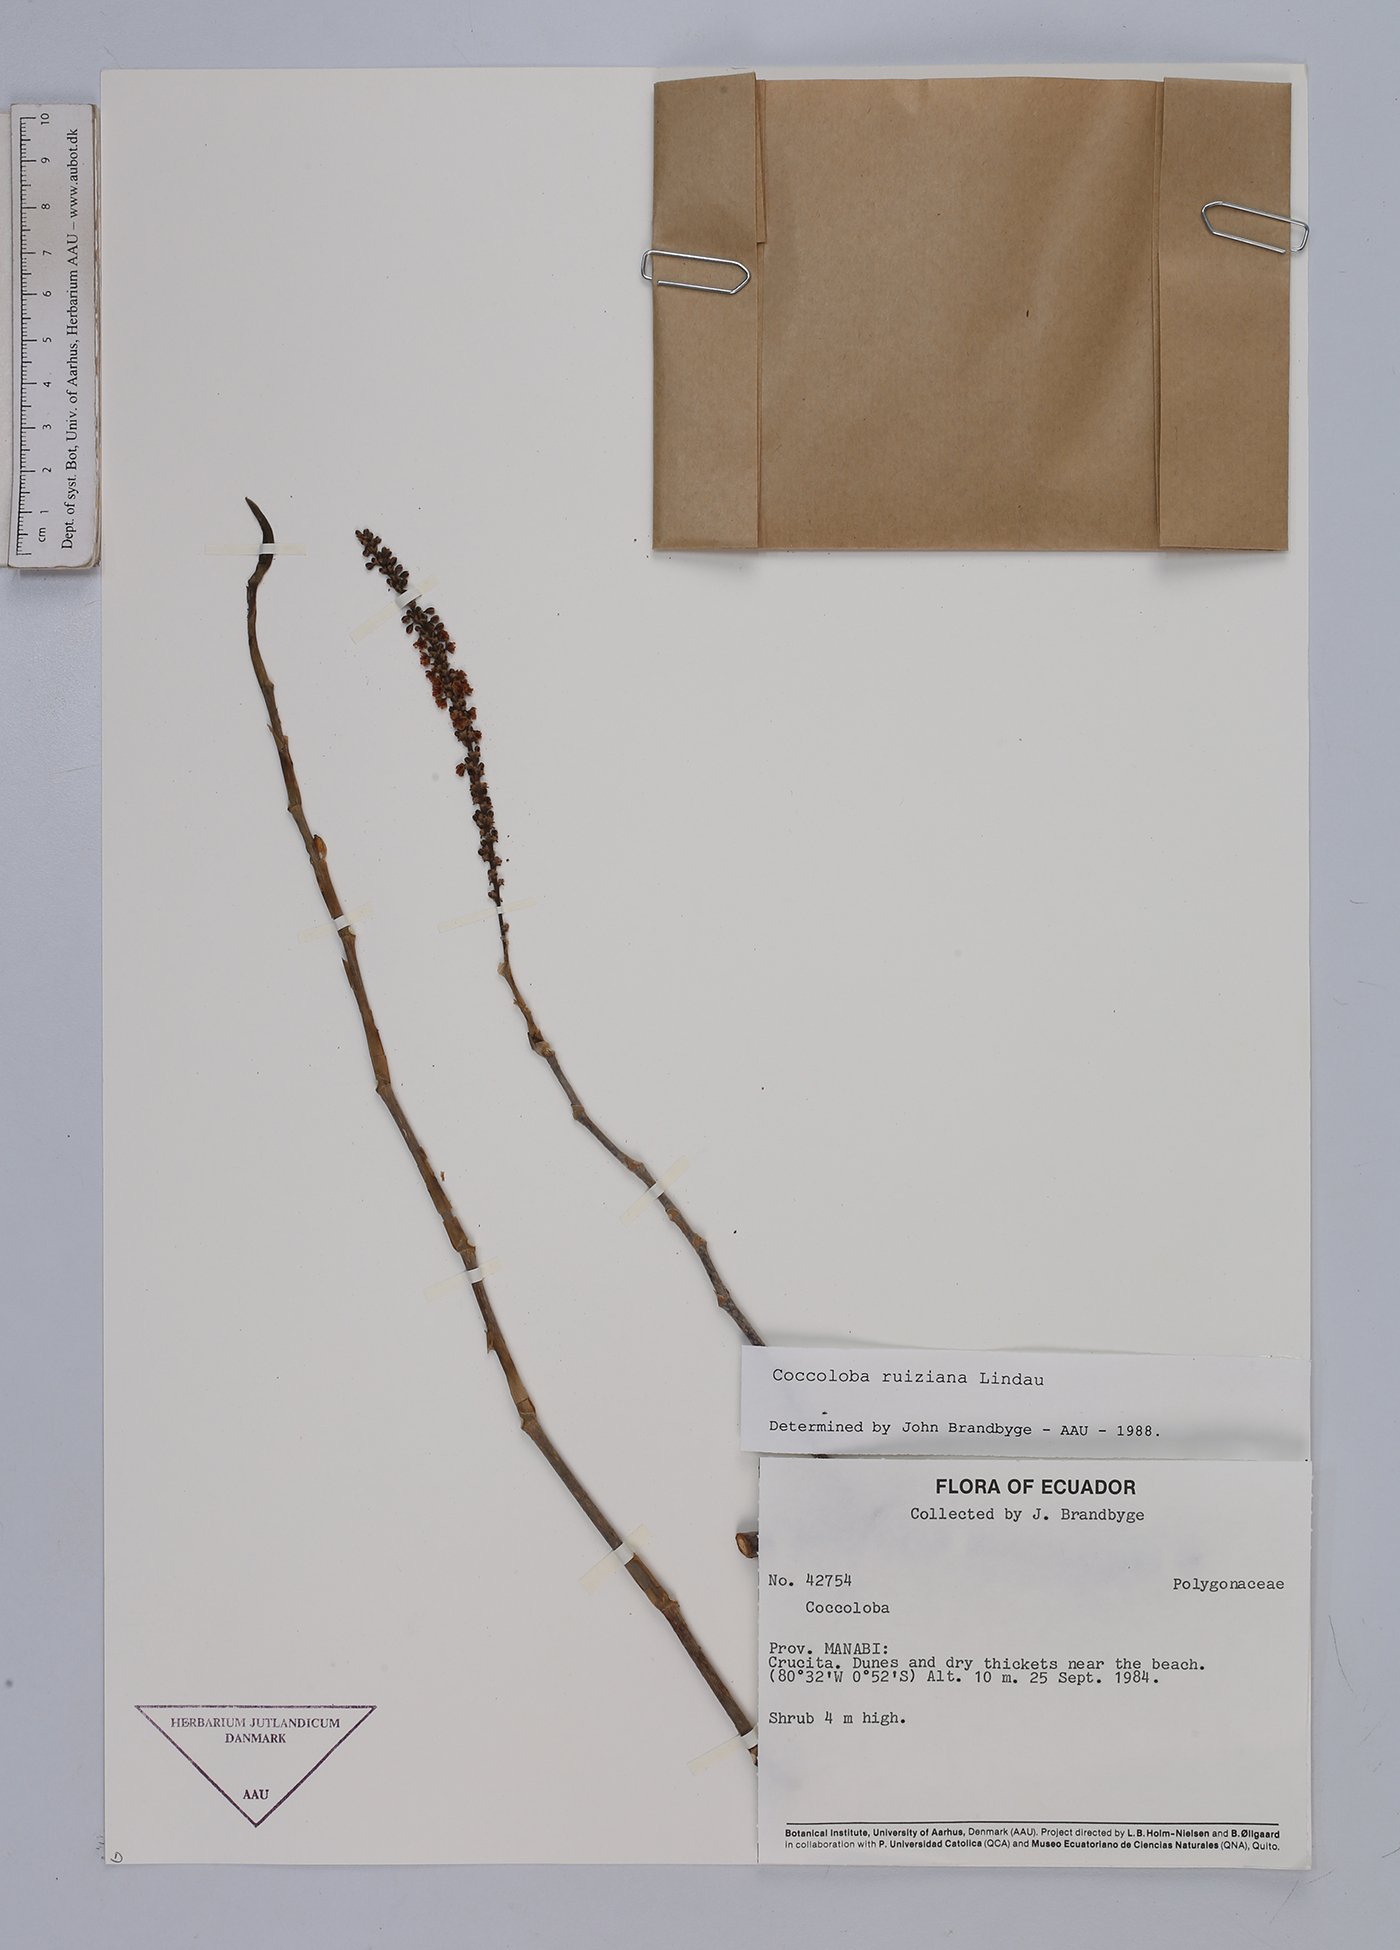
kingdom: Plantae
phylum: Tracheophyta
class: Magnoliopsida
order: Caryophyllales
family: Polygonaceae
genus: Coccoloba
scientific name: Coccoloba ruiziana
